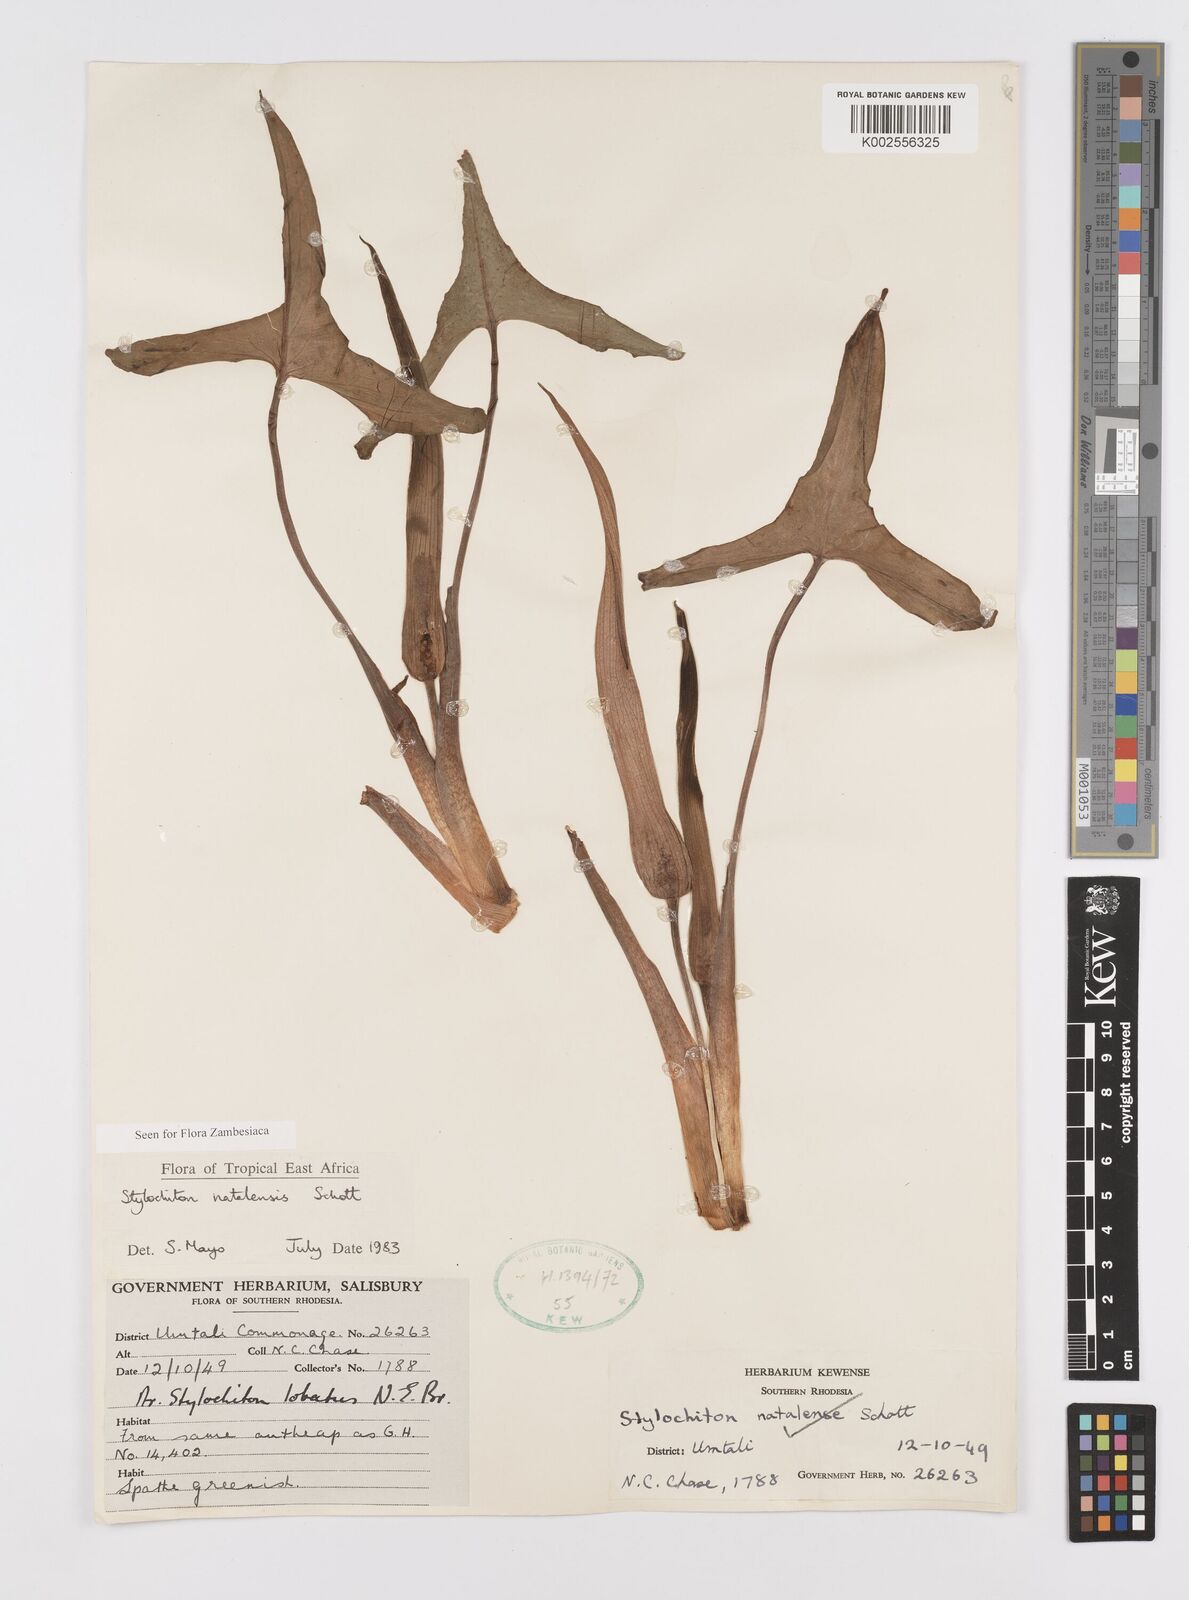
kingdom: Plantae
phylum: Tracheophyta
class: Liliopsida
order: Alismatales
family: Araceae
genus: Stylochaeton
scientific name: Stylochaeton natalense
